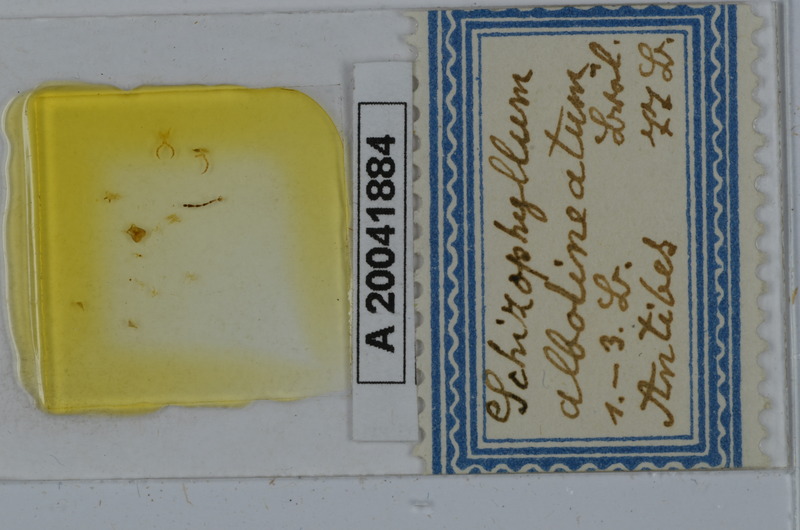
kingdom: Animalia
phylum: Arthropoda
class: Diplopoda
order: Julida
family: Julidae
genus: Schizophyllum
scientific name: Schizophyllum albolineatum
